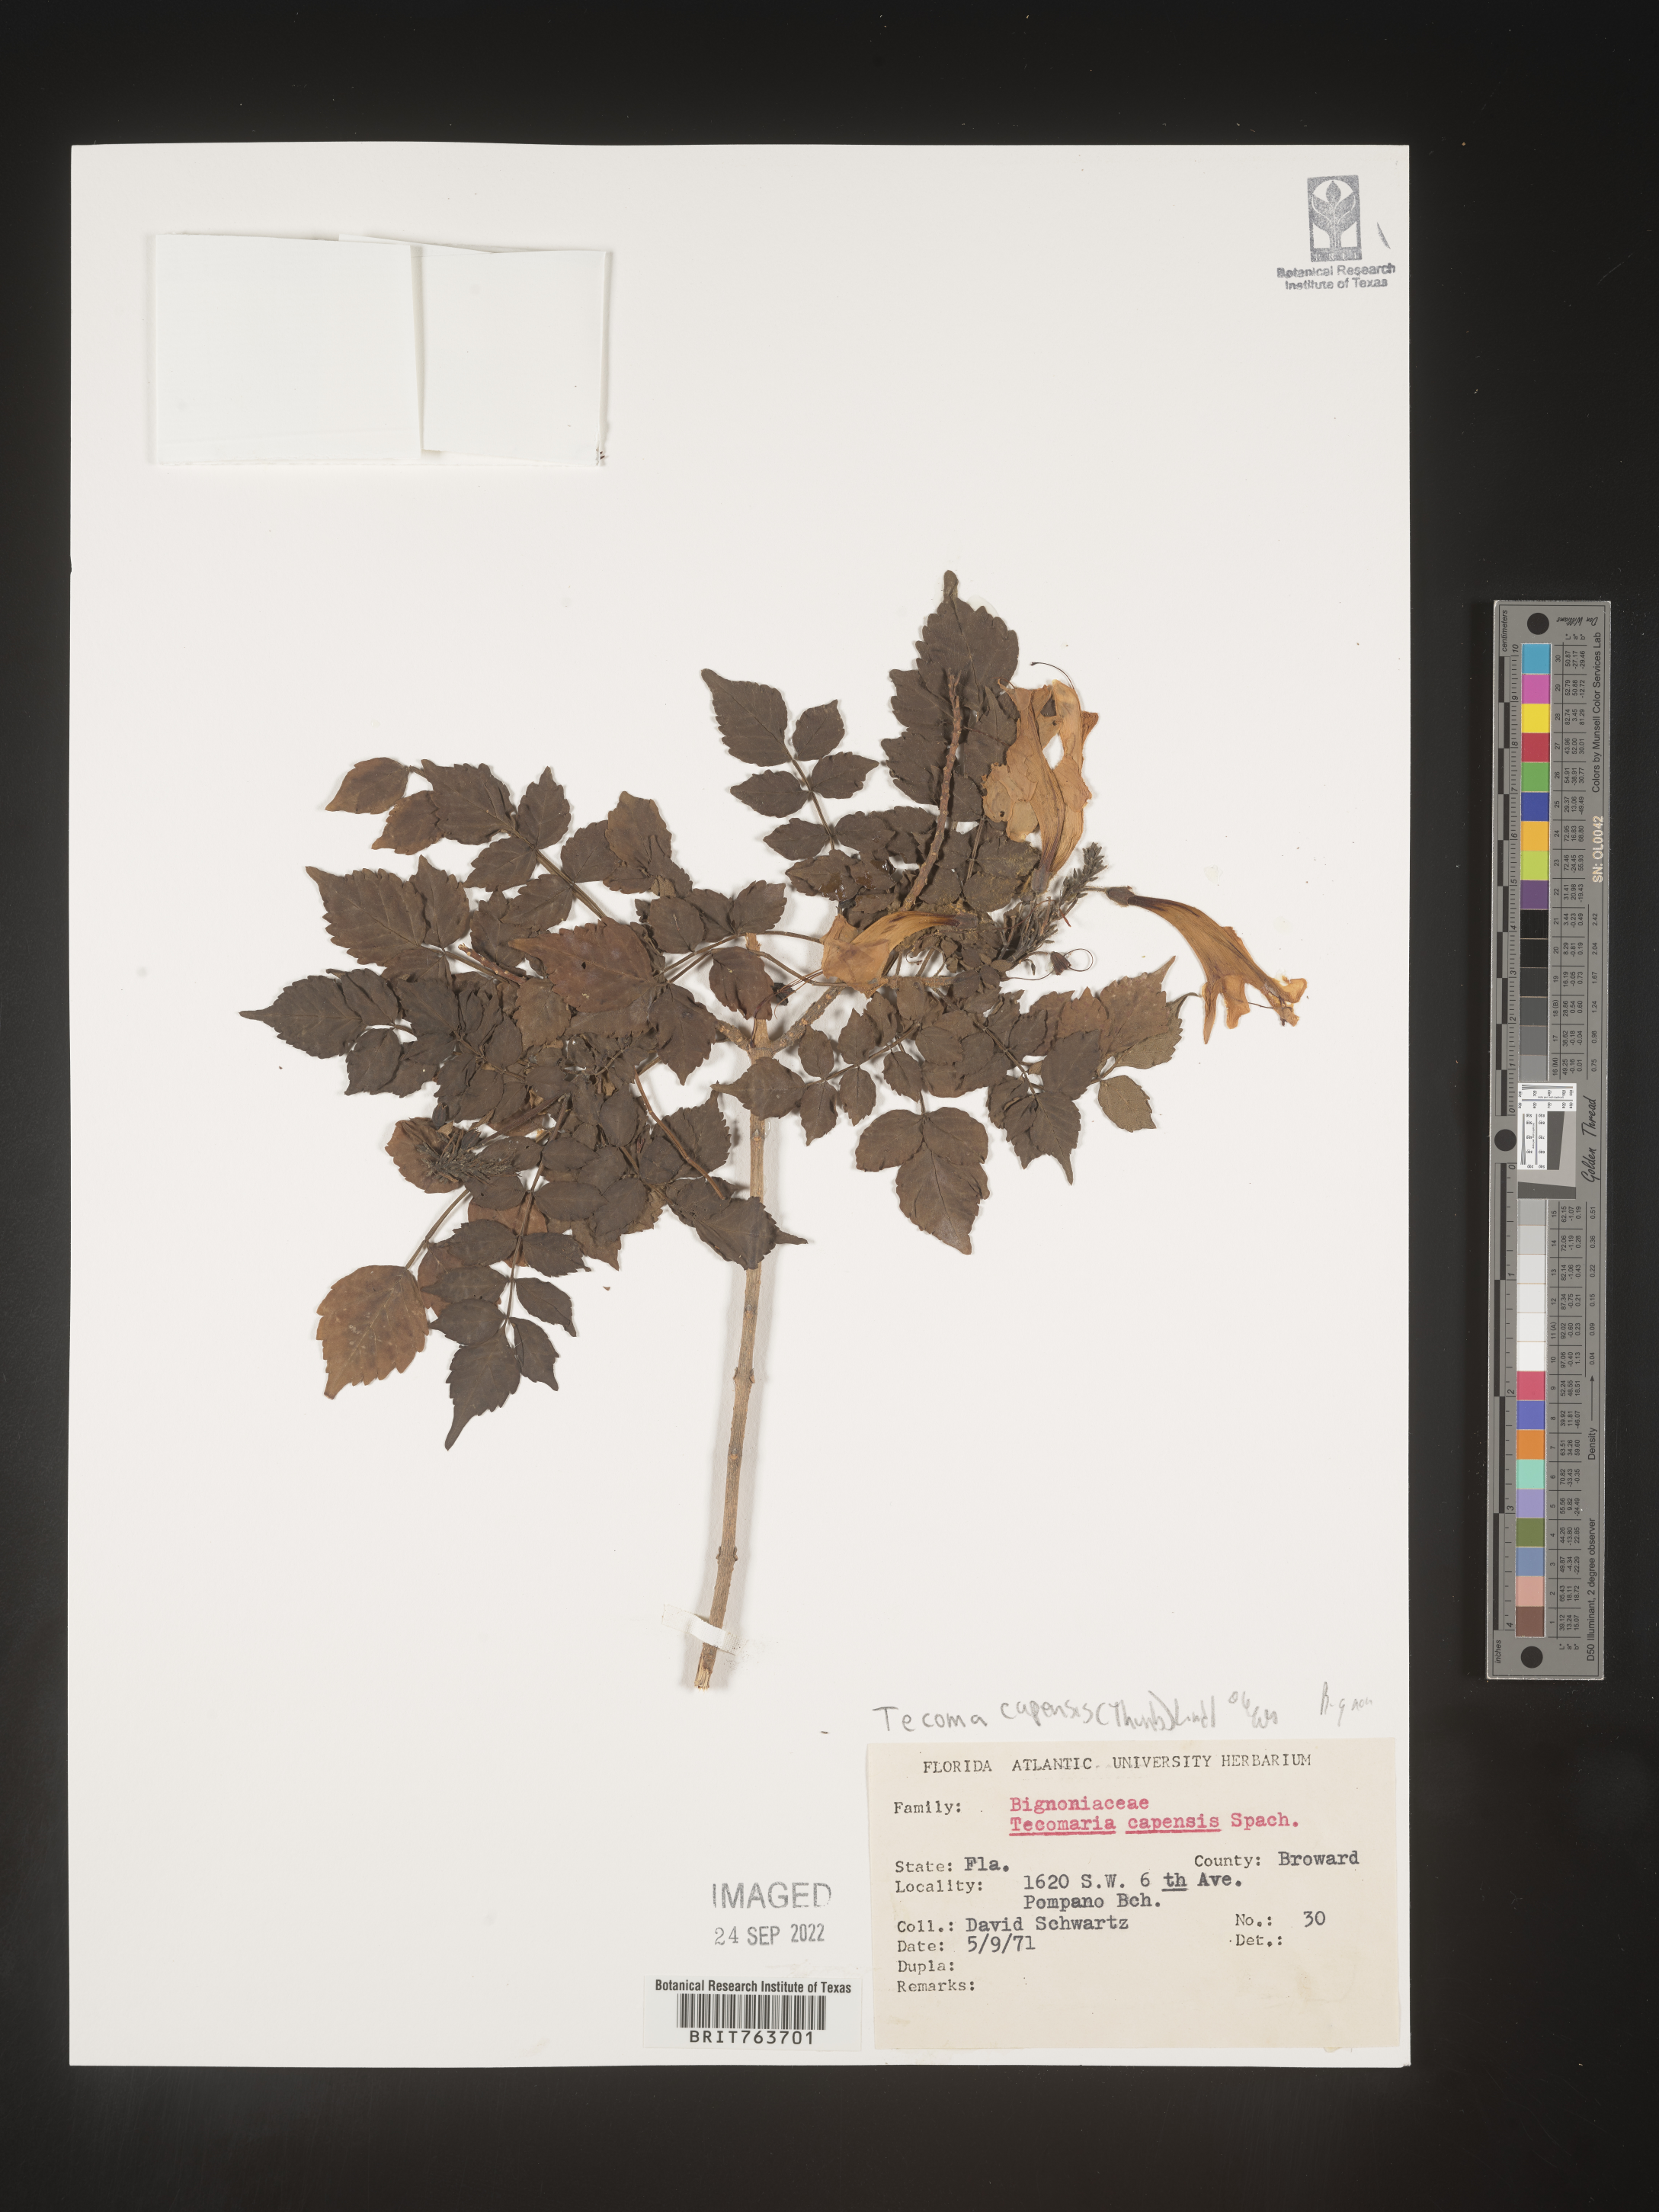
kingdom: Plantae
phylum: Tracheophyta
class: Magnoliopsida
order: Lamiales
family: Bignoniaceae
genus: Tecoma
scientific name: Tecoma
